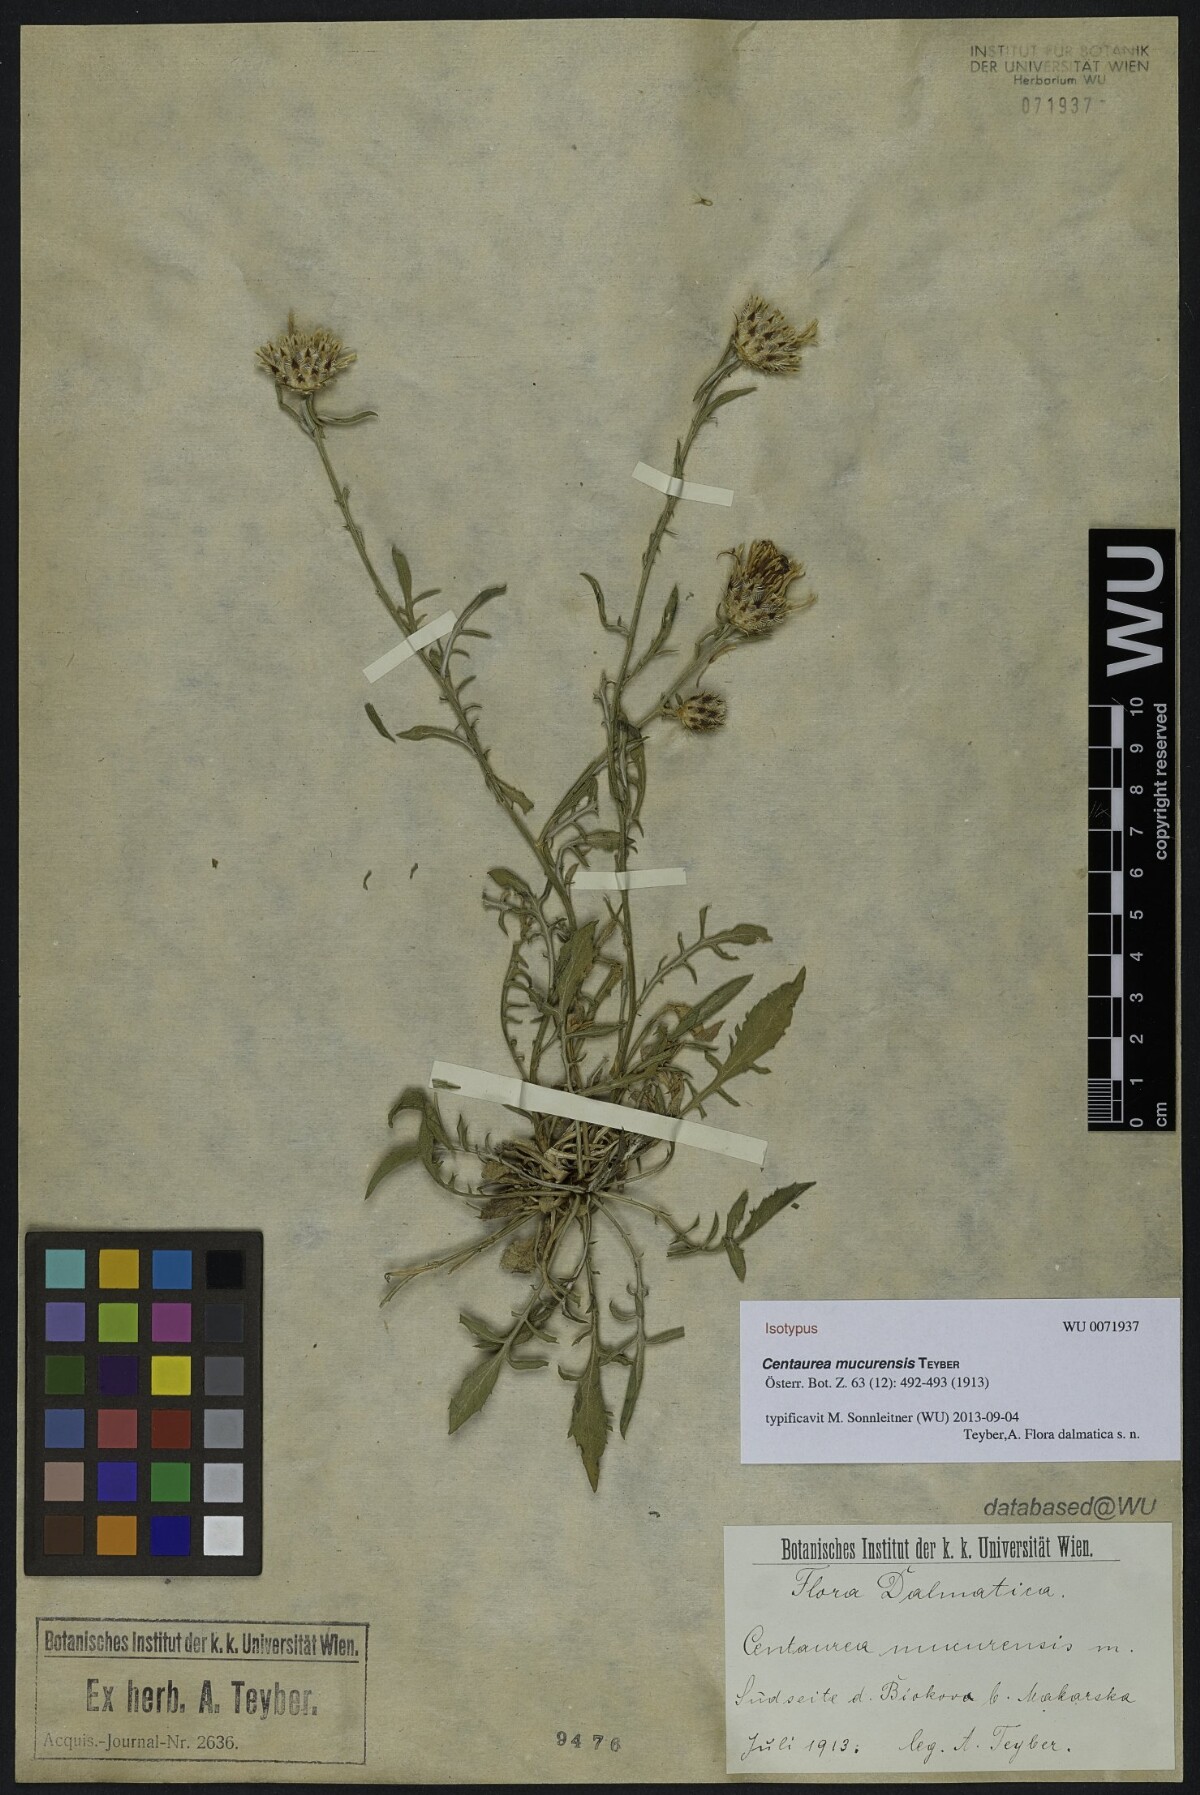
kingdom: Plantae
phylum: Tracheophyta
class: Magnoliopsida
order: Asterales
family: Asteraceae
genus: Centaurea
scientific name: Centaurea mucurensis
